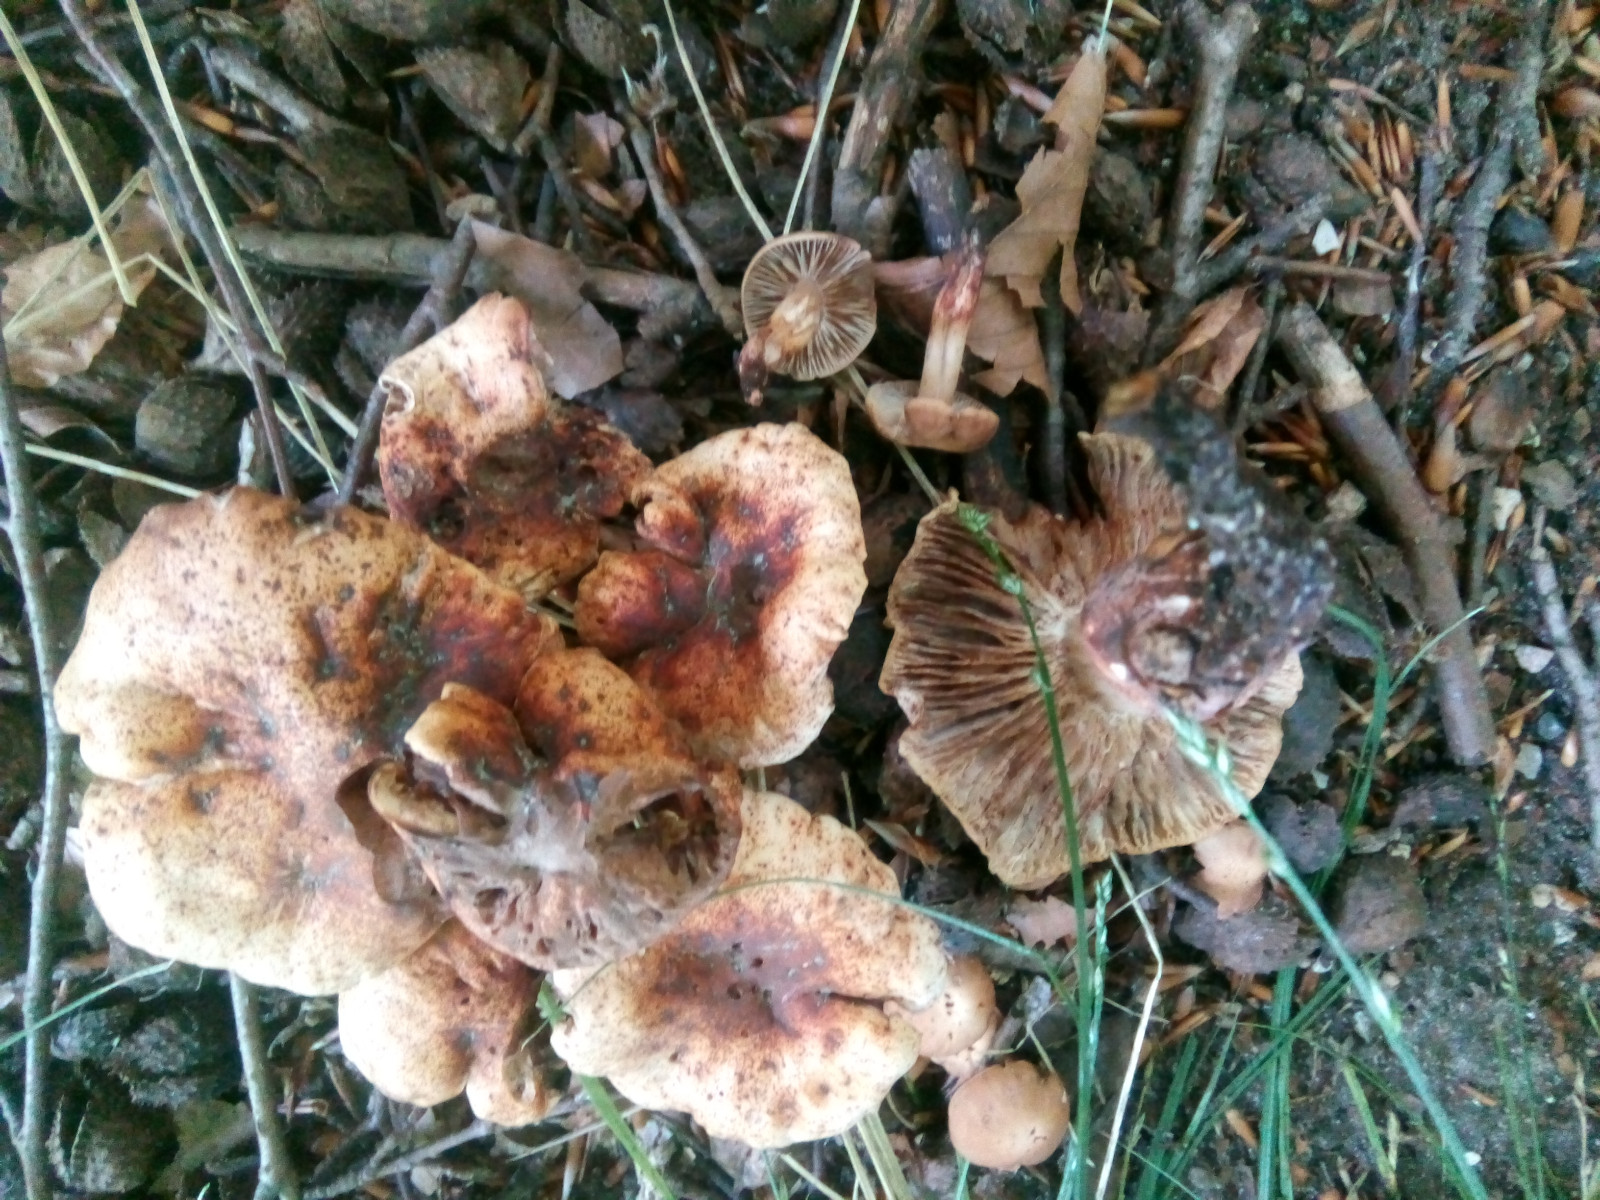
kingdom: Fungi
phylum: Basidiomycota
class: Agaricomycetes
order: Agaricales
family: Omphalotaceae
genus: Gymnopus
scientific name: Gymnopus fusipes
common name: tenstokket fladhat
